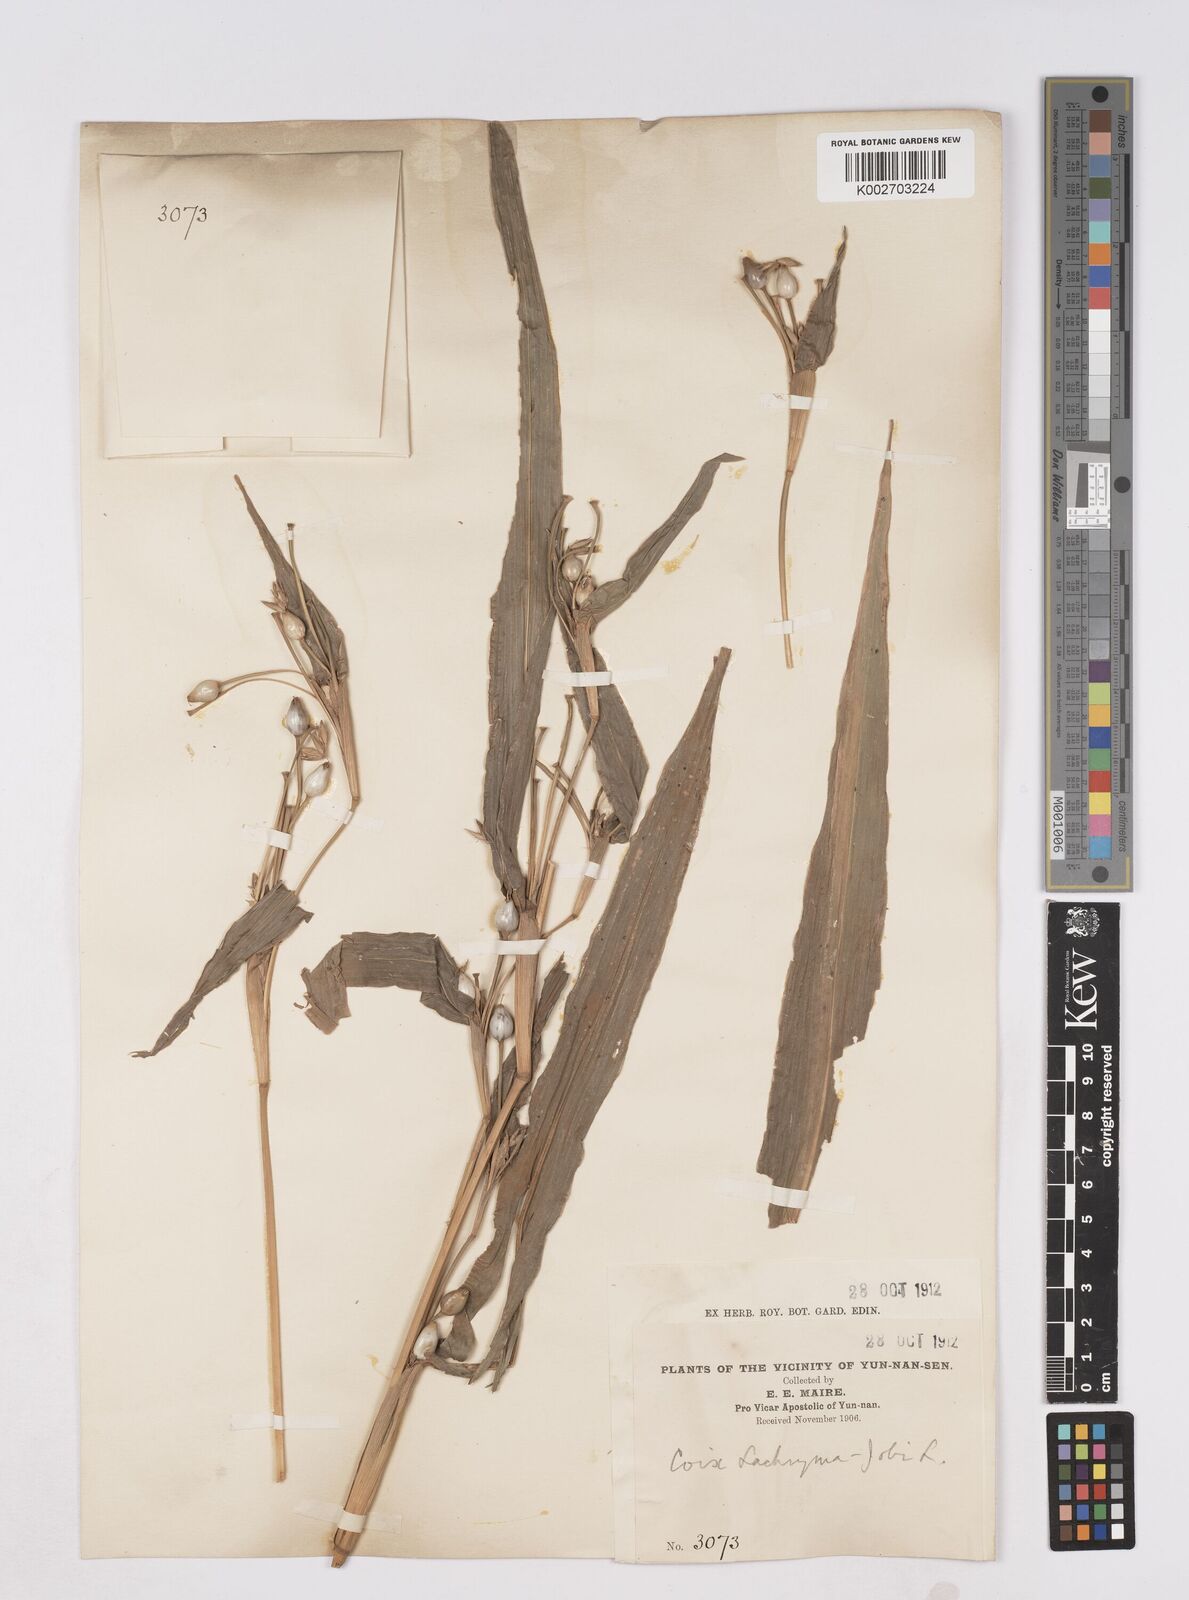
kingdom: Plantae
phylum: Tracheophyta
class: Liliopsida
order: Poales
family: Poaceae
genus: Coix
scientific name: Coix lacryma-jobi
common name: Job's tears
